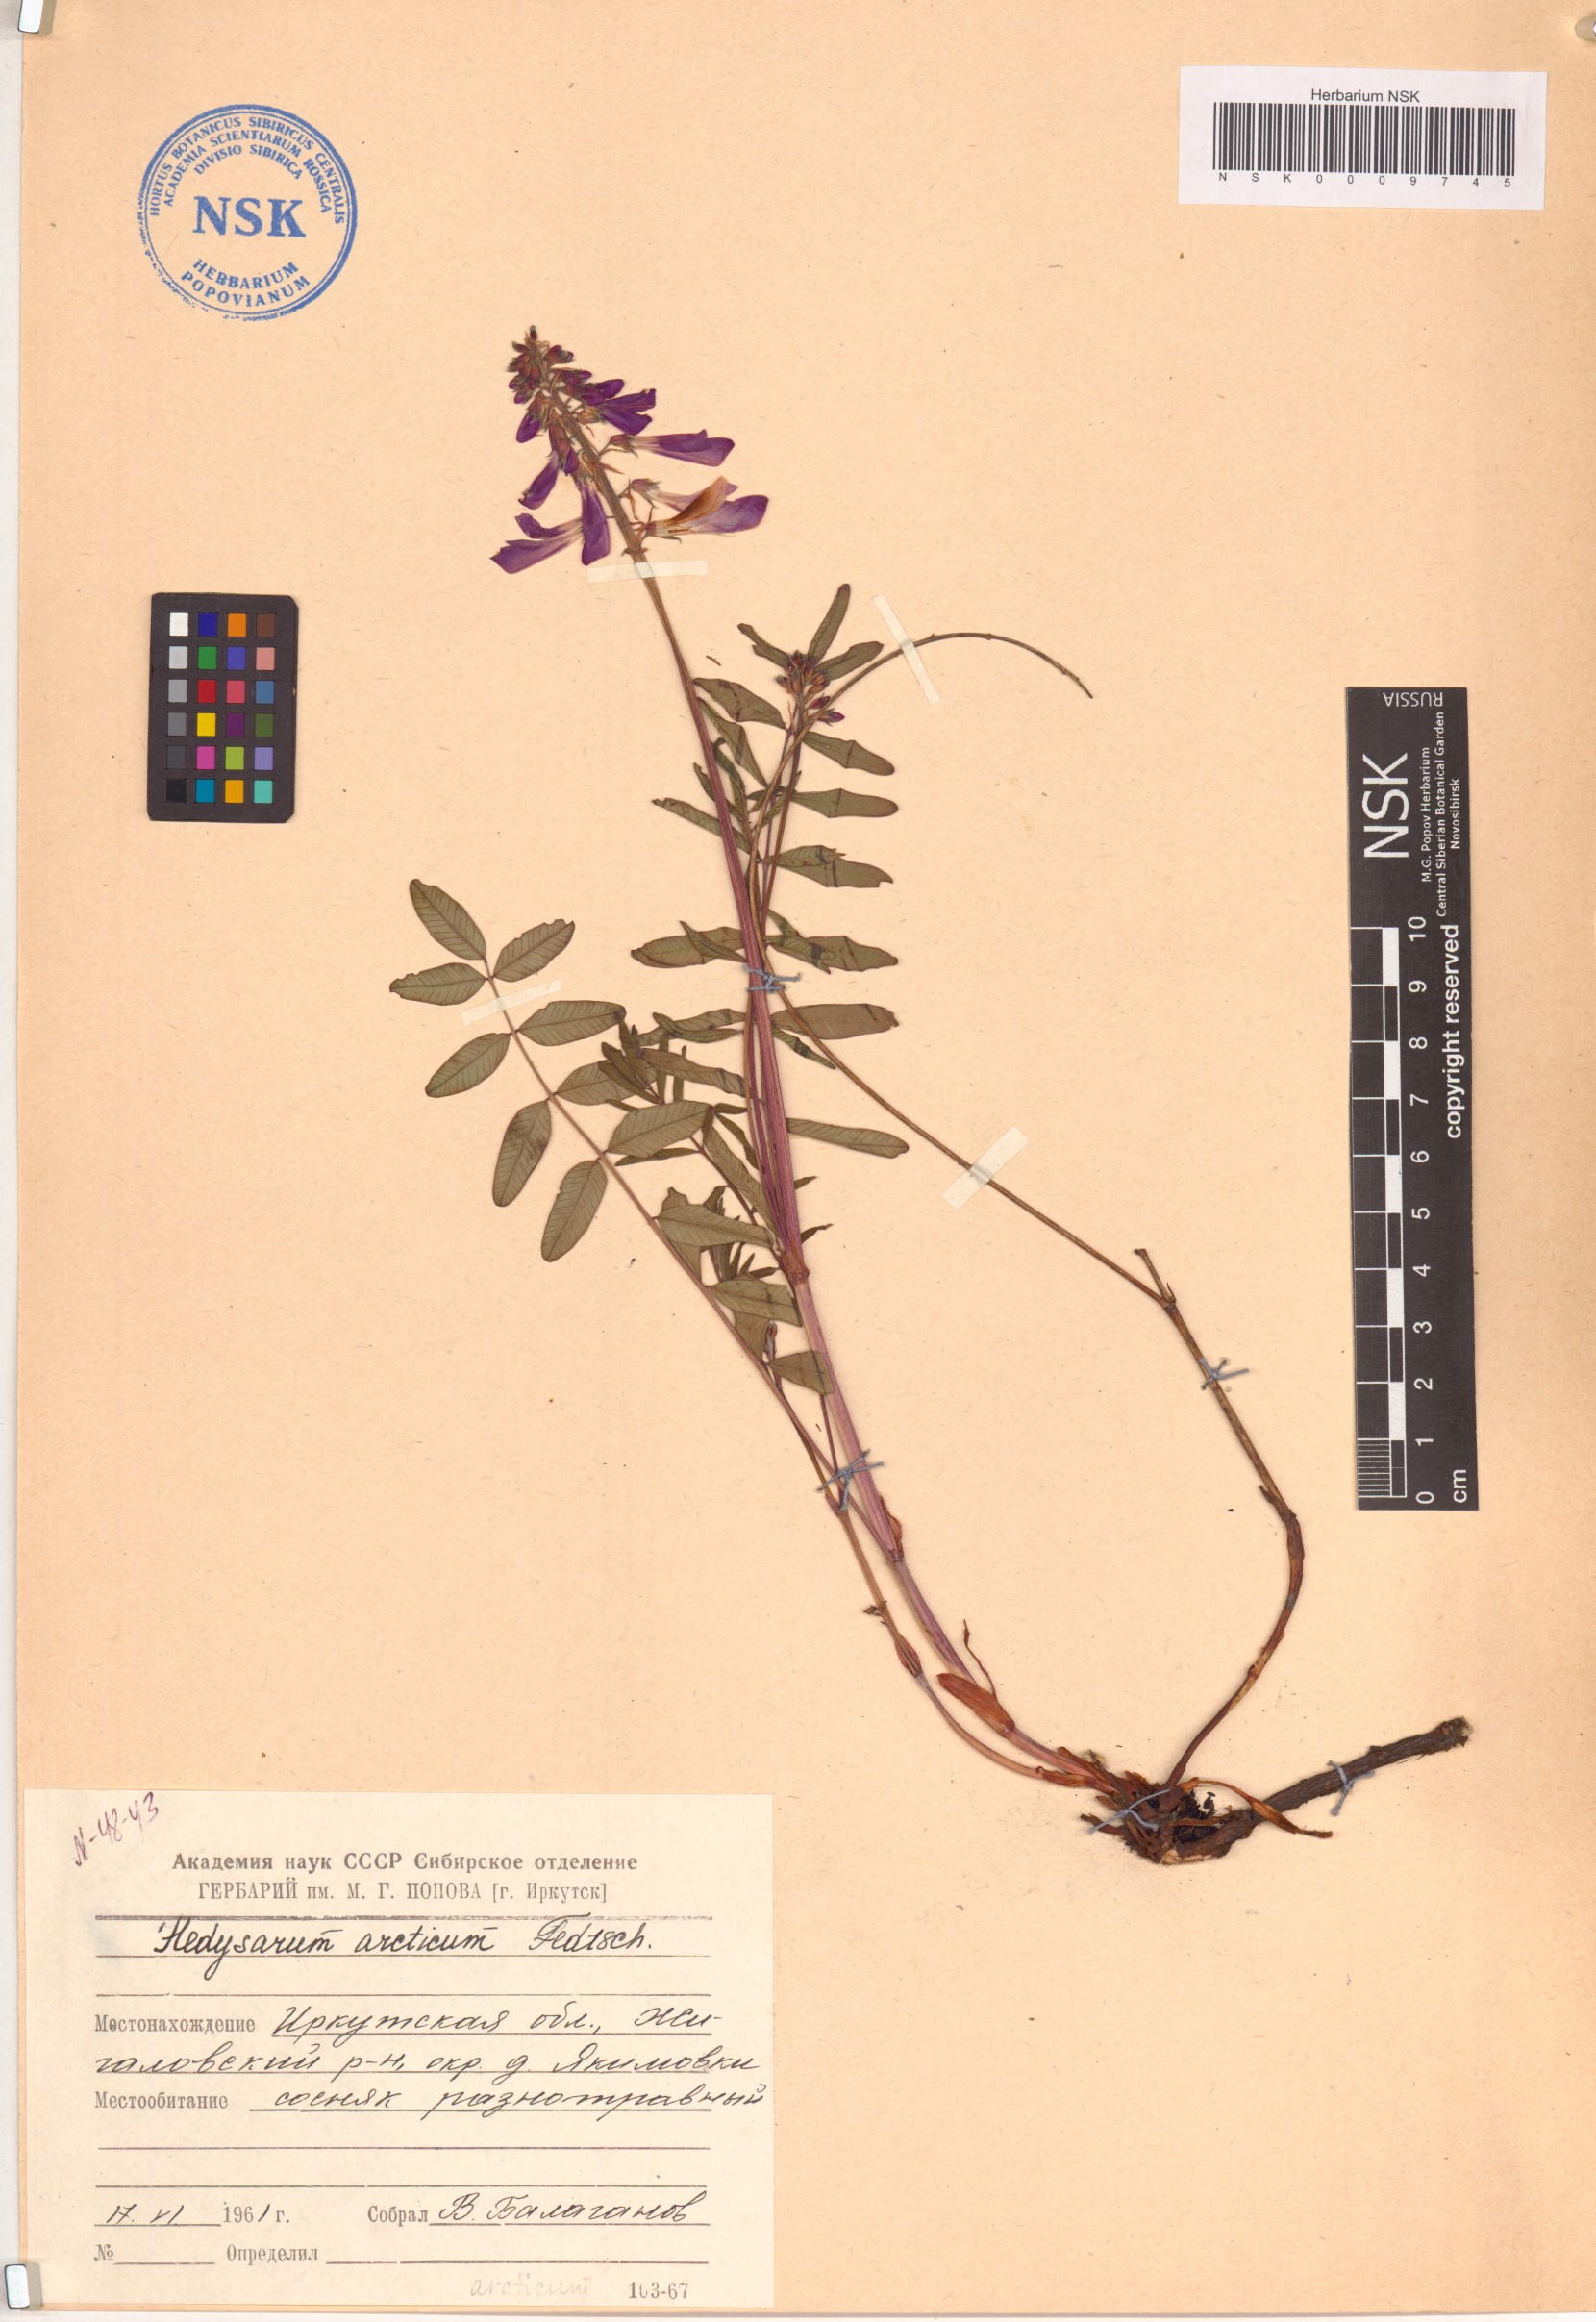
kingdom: Plantae
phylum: Tracheophyta
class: Magnoliopsida
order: Fabales
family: Fabaceae
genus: Hedysarum
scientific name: Hedysarum hedysaroides
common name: Alpine french-honeysuckle
